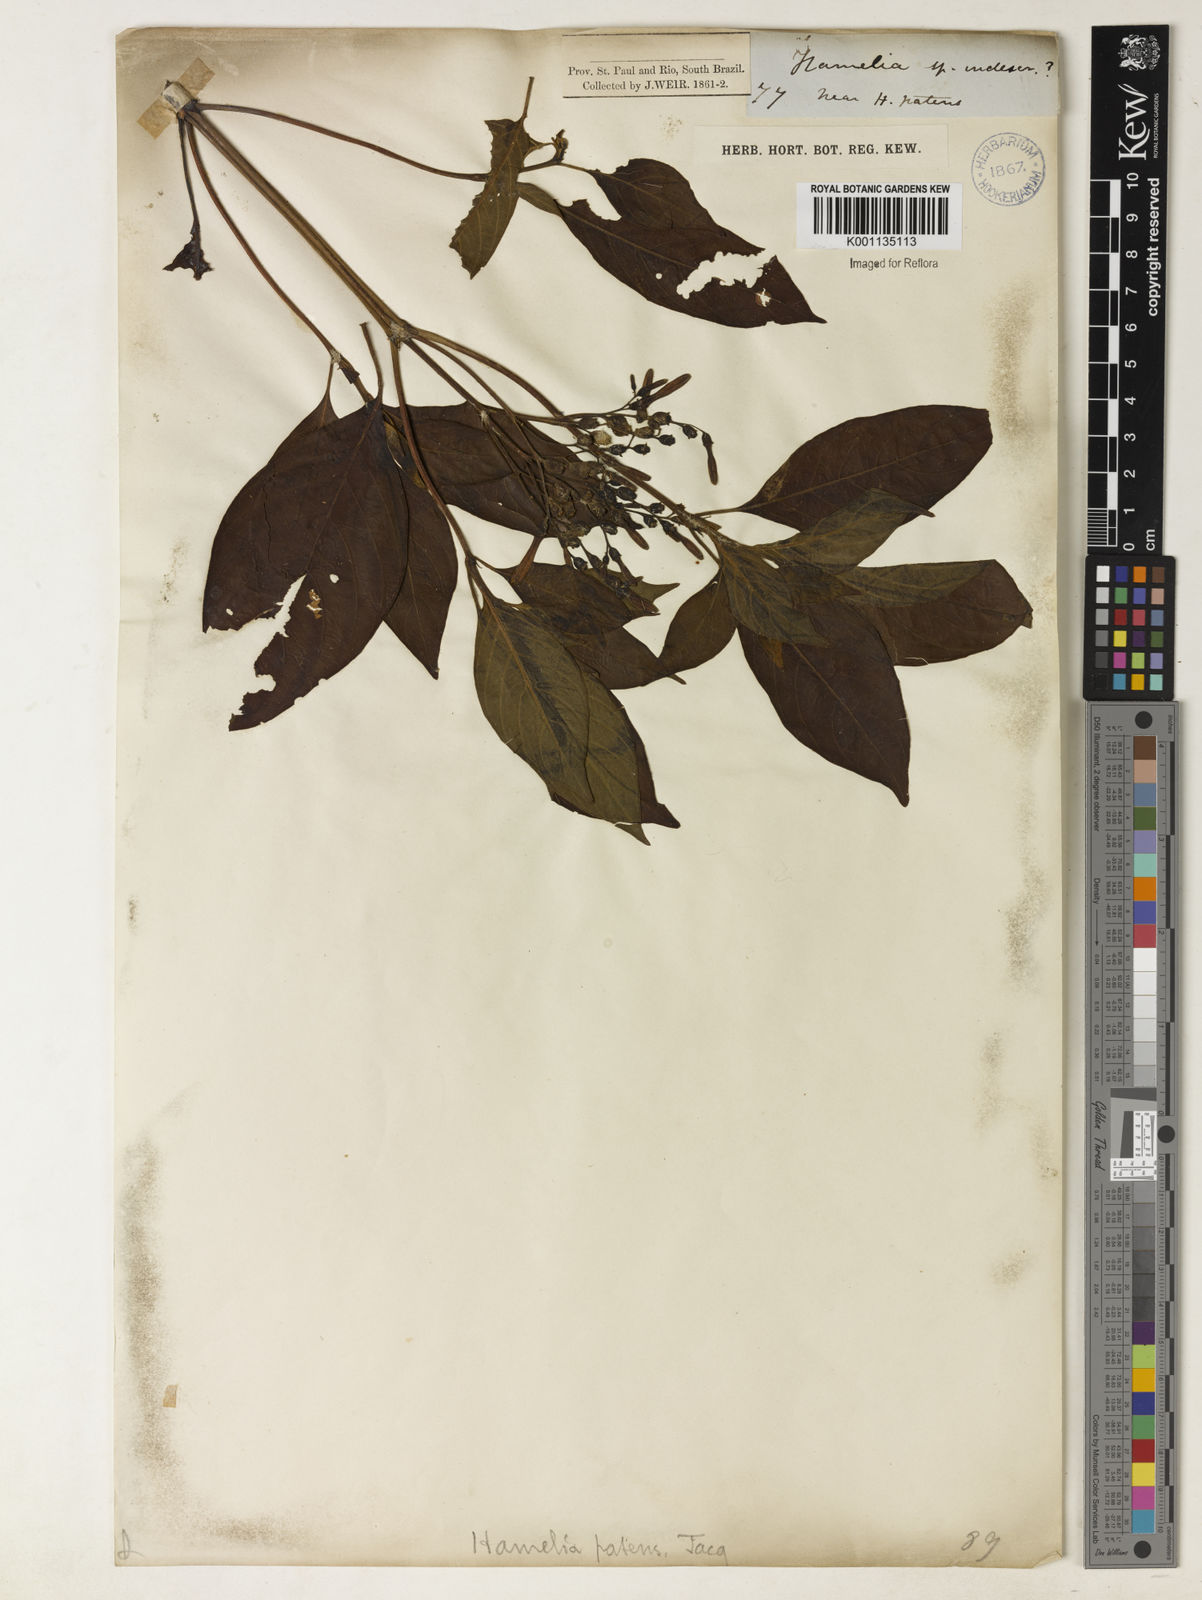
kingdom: Plantae
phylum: Tracheophyta
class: Magnoliopsida
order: Gentianales
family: Rubiaceae
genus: Hamelia
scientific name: Hamelia patens
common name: Redhead
